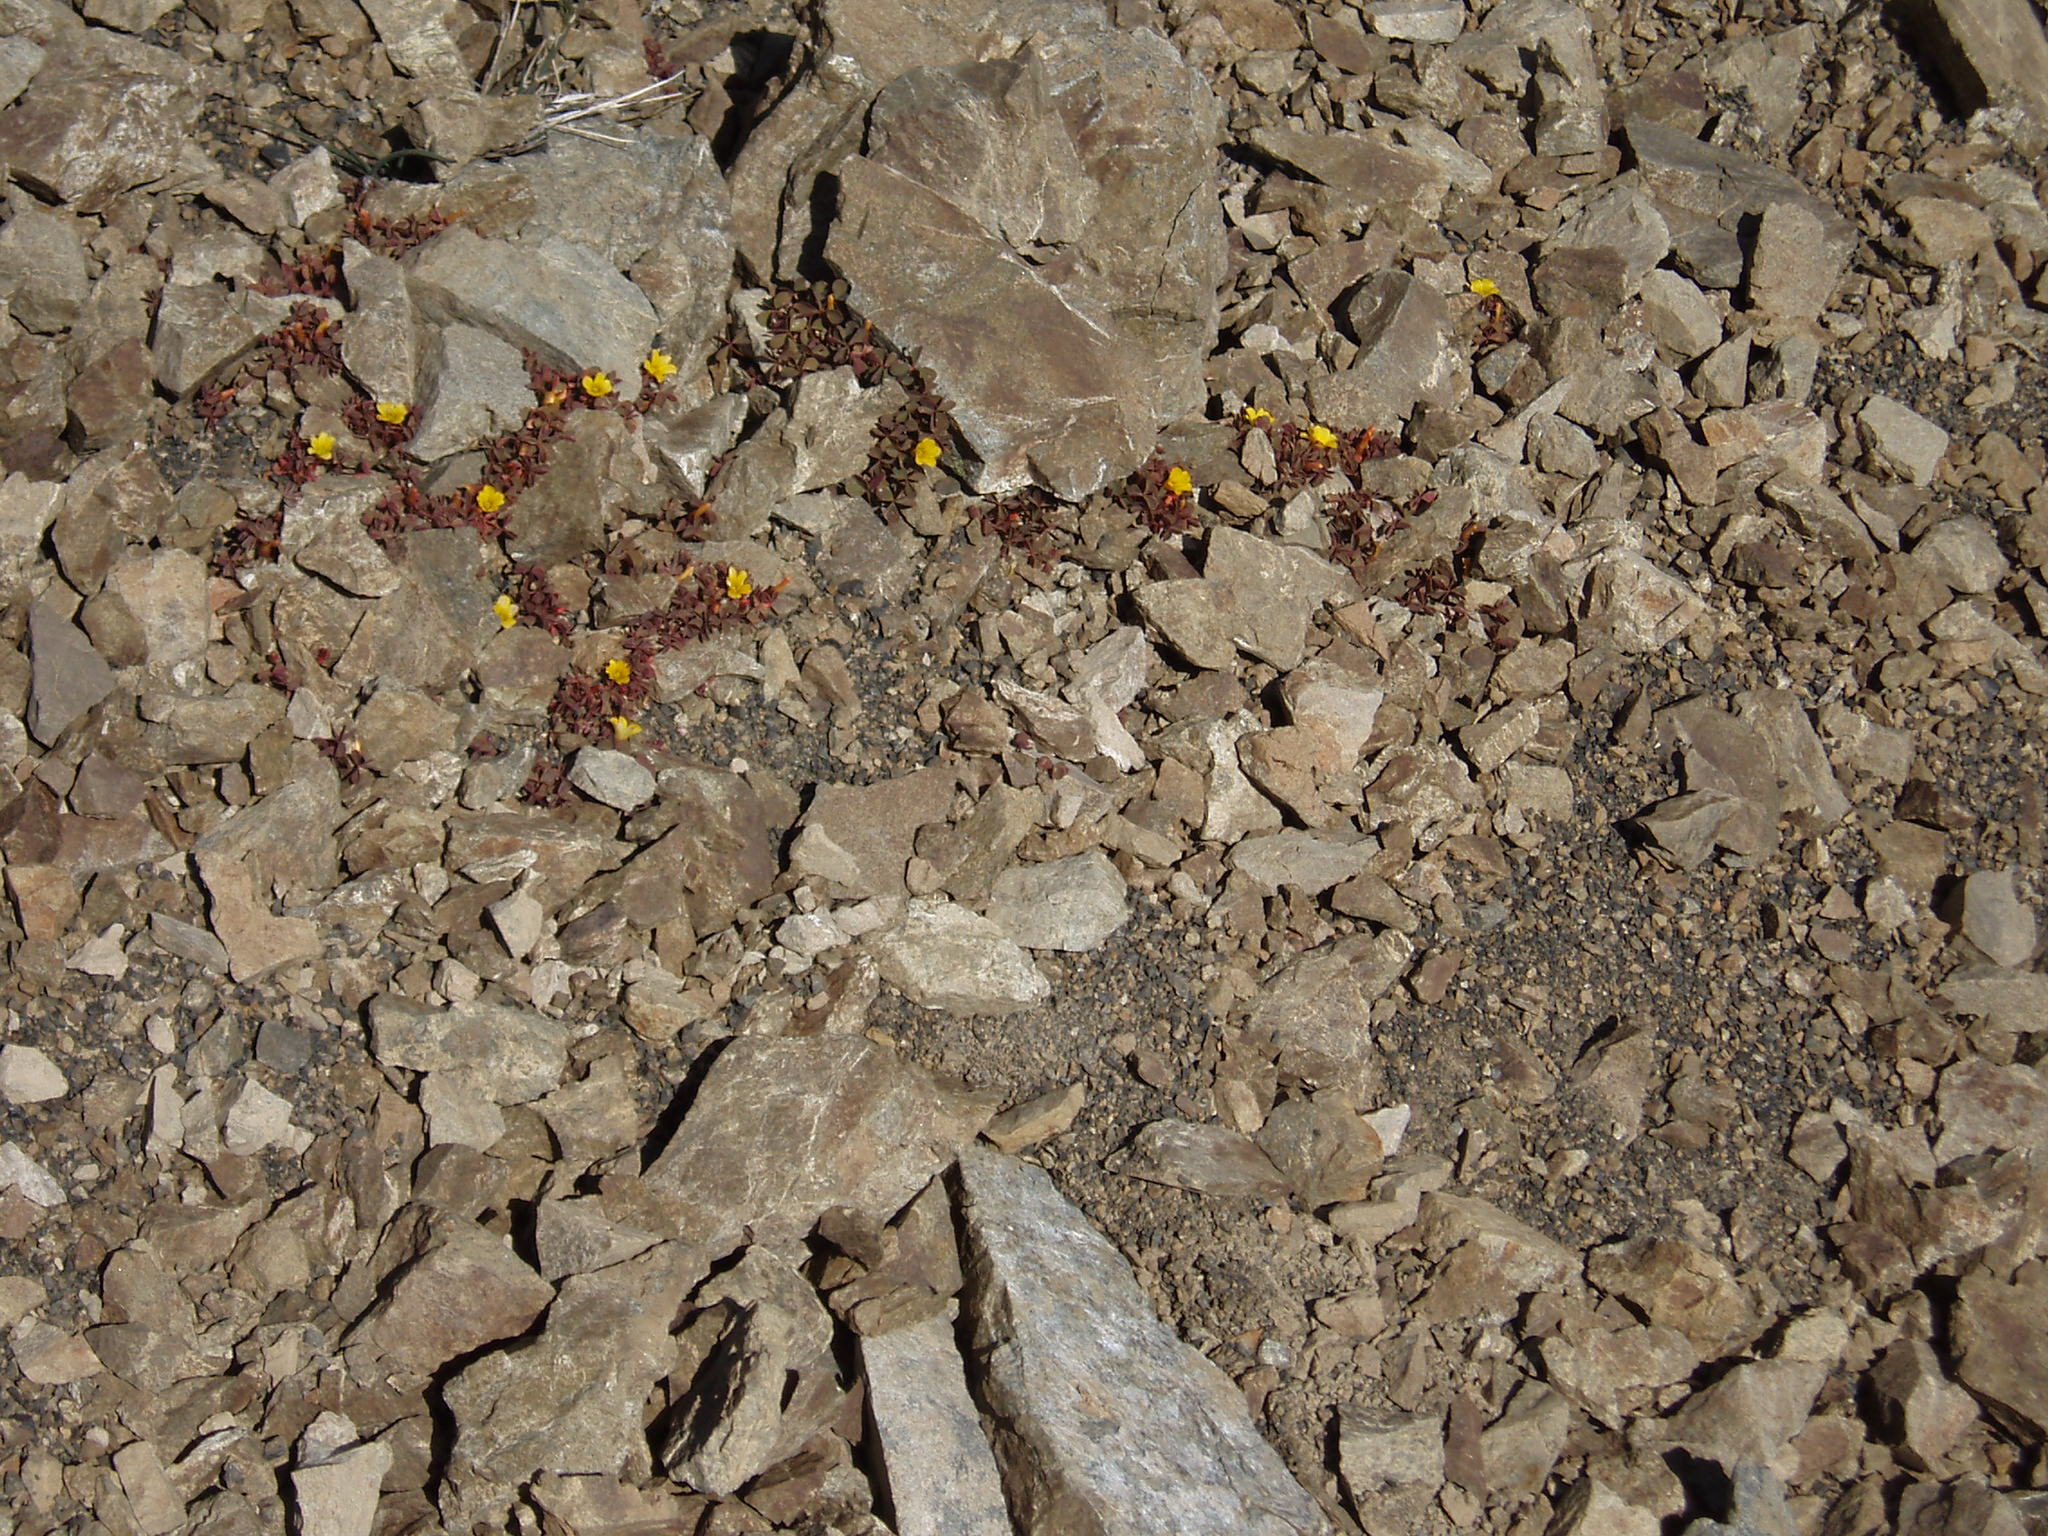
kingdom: Plantae
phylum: Tracheophyta
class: Magnoliopsida
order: Oxalidales
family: Oxalidaceae
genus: Oxalis
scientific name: Oxalis
